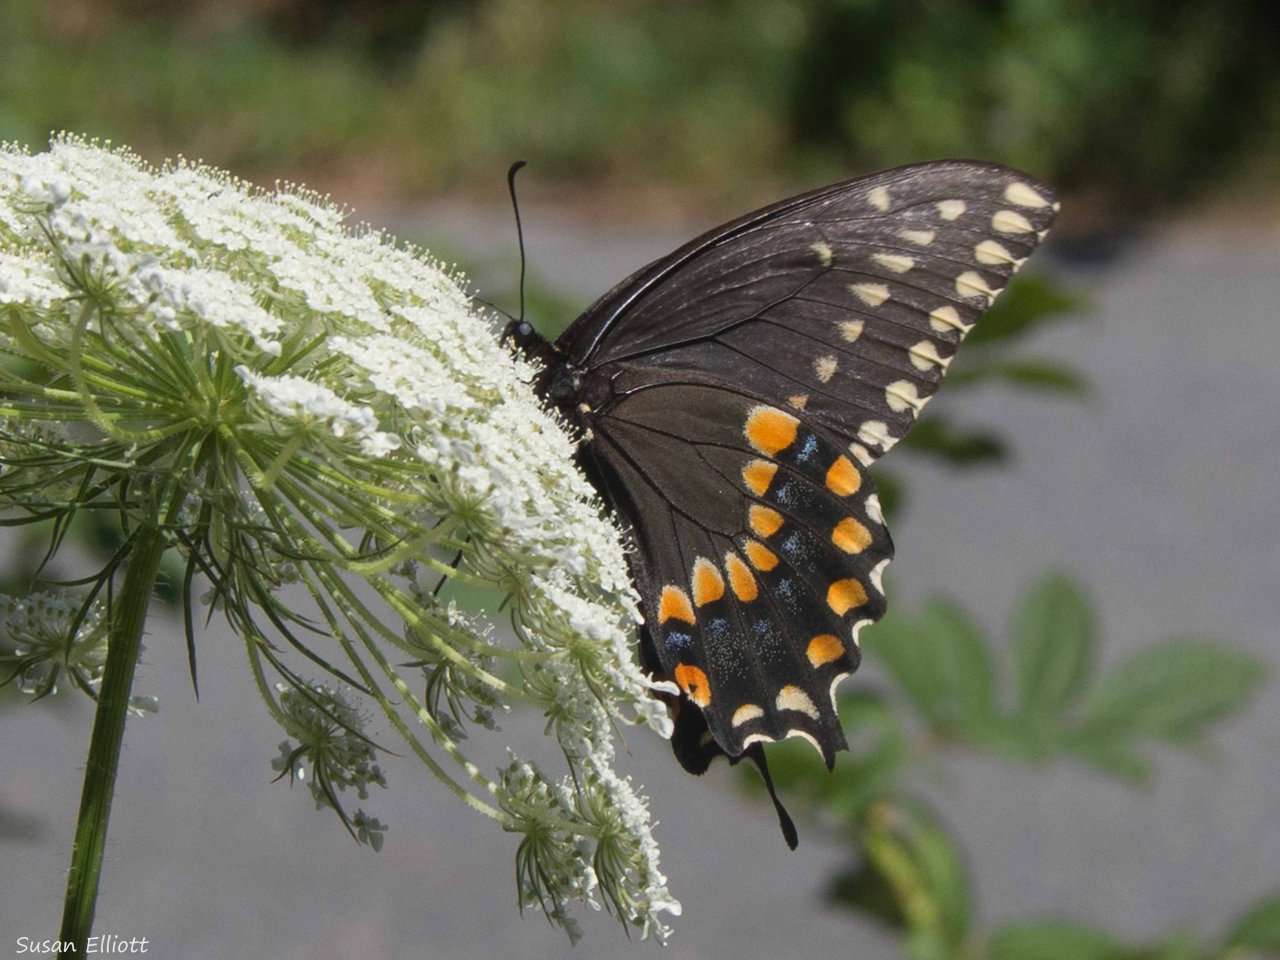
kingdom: Animalia
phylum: Arthropoda
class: Insecta
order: Lepidoptera
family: Papilionidae
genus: Papilio
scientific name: Papilio polyxenes
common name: Black Swallowtail
